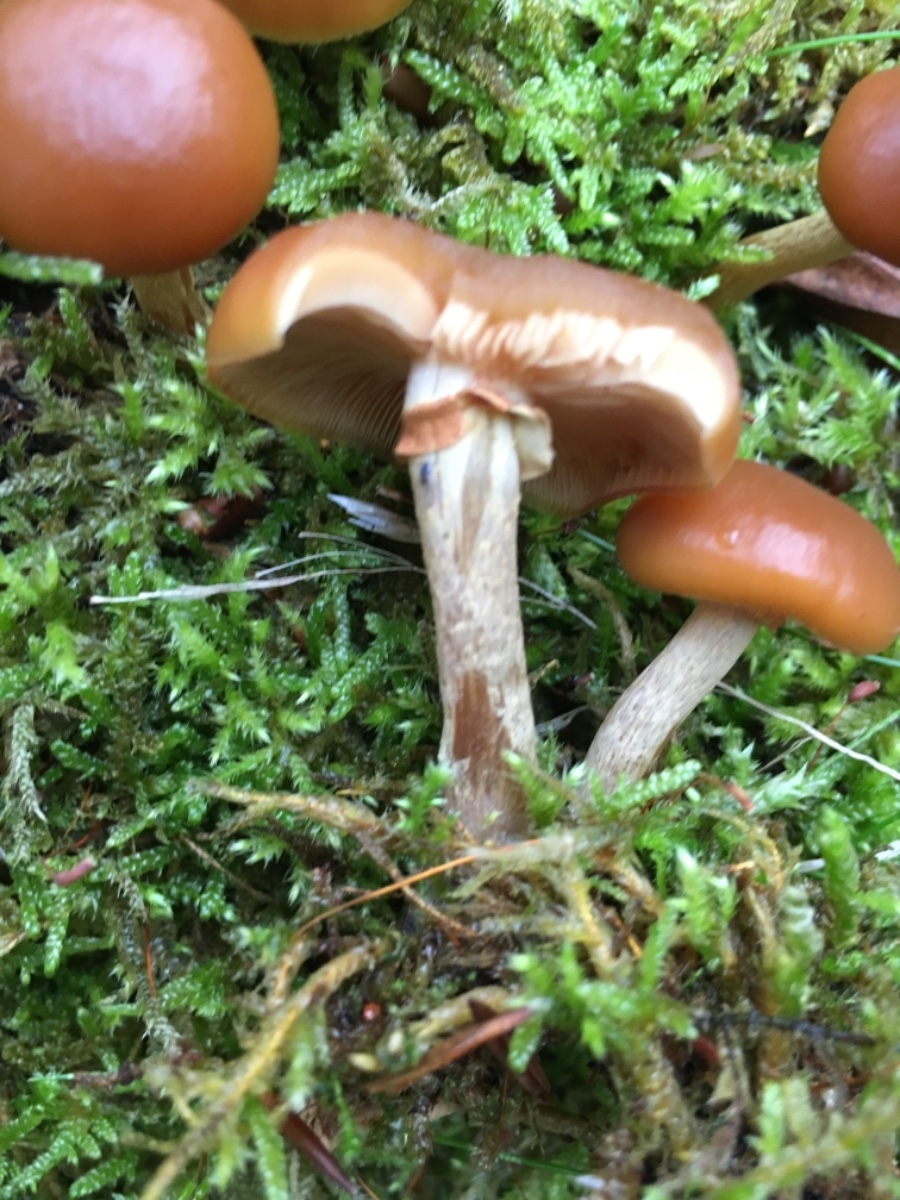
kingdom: Fungi
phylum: Basidiomycota
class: Agaricomycetes
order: Agaricales
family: Hymenogastraceae
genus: Galerina
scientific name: Galerina marginata
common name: randbæltet hjelmhat
